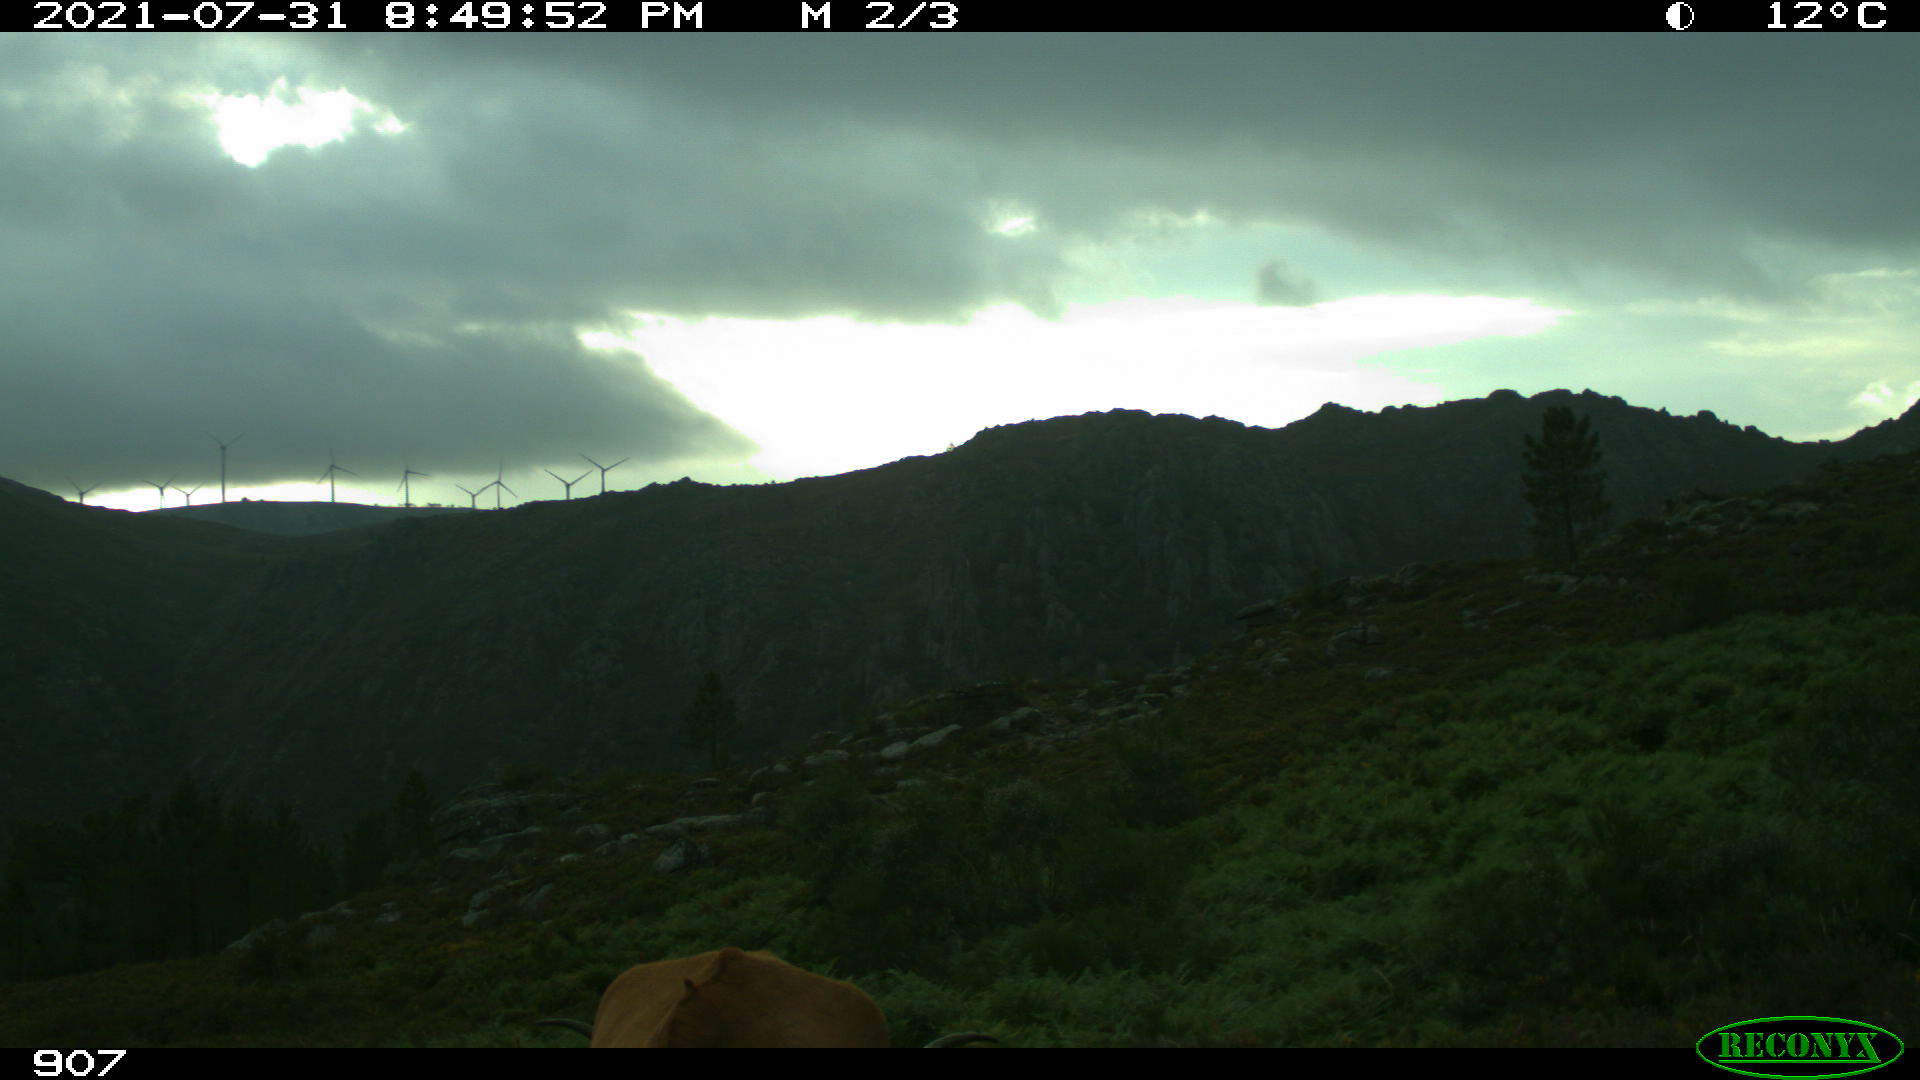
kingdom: Animalia
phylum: Chordata
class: Mammalia
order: Artiodactyla
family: Bovidae
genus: Bos
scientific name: Bos taurus
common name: Domesticated cattle
